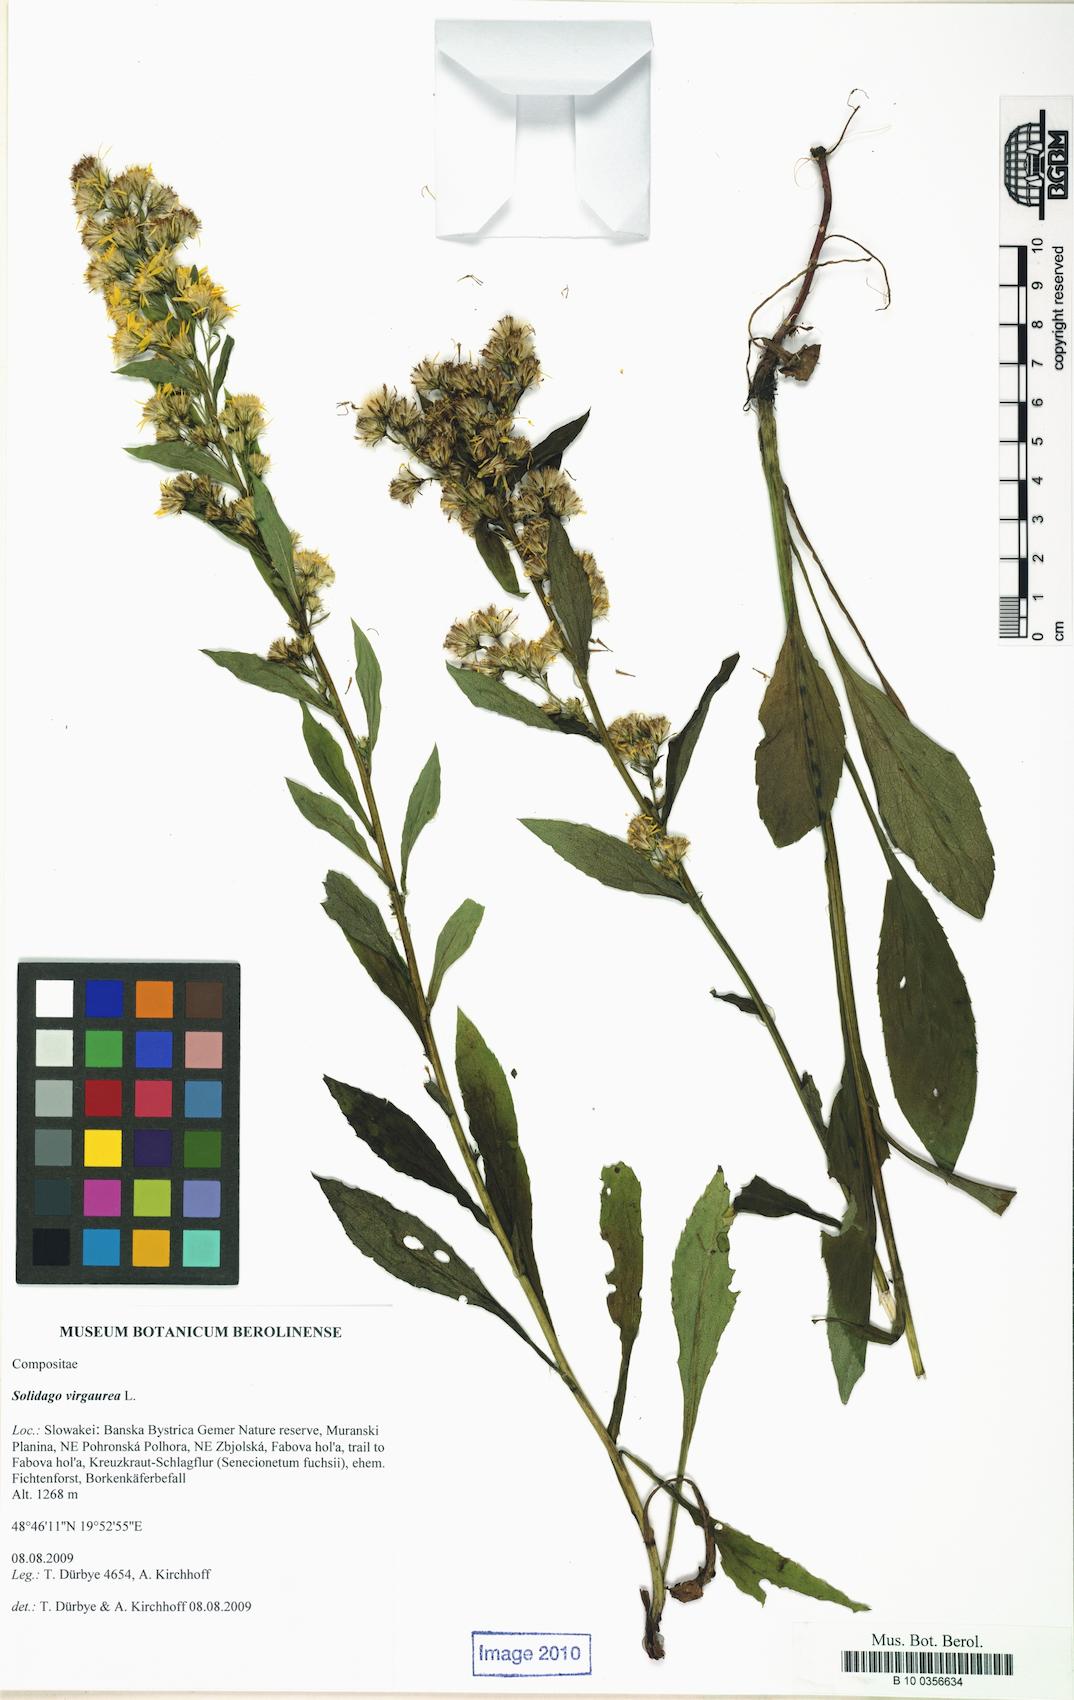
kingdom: Plantae
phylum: Tracheophyta
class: Magnoliopsida
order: Asterales
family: Asteraceae
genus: Solidago
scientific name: Solidago virgaurea
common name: Goldenrod
